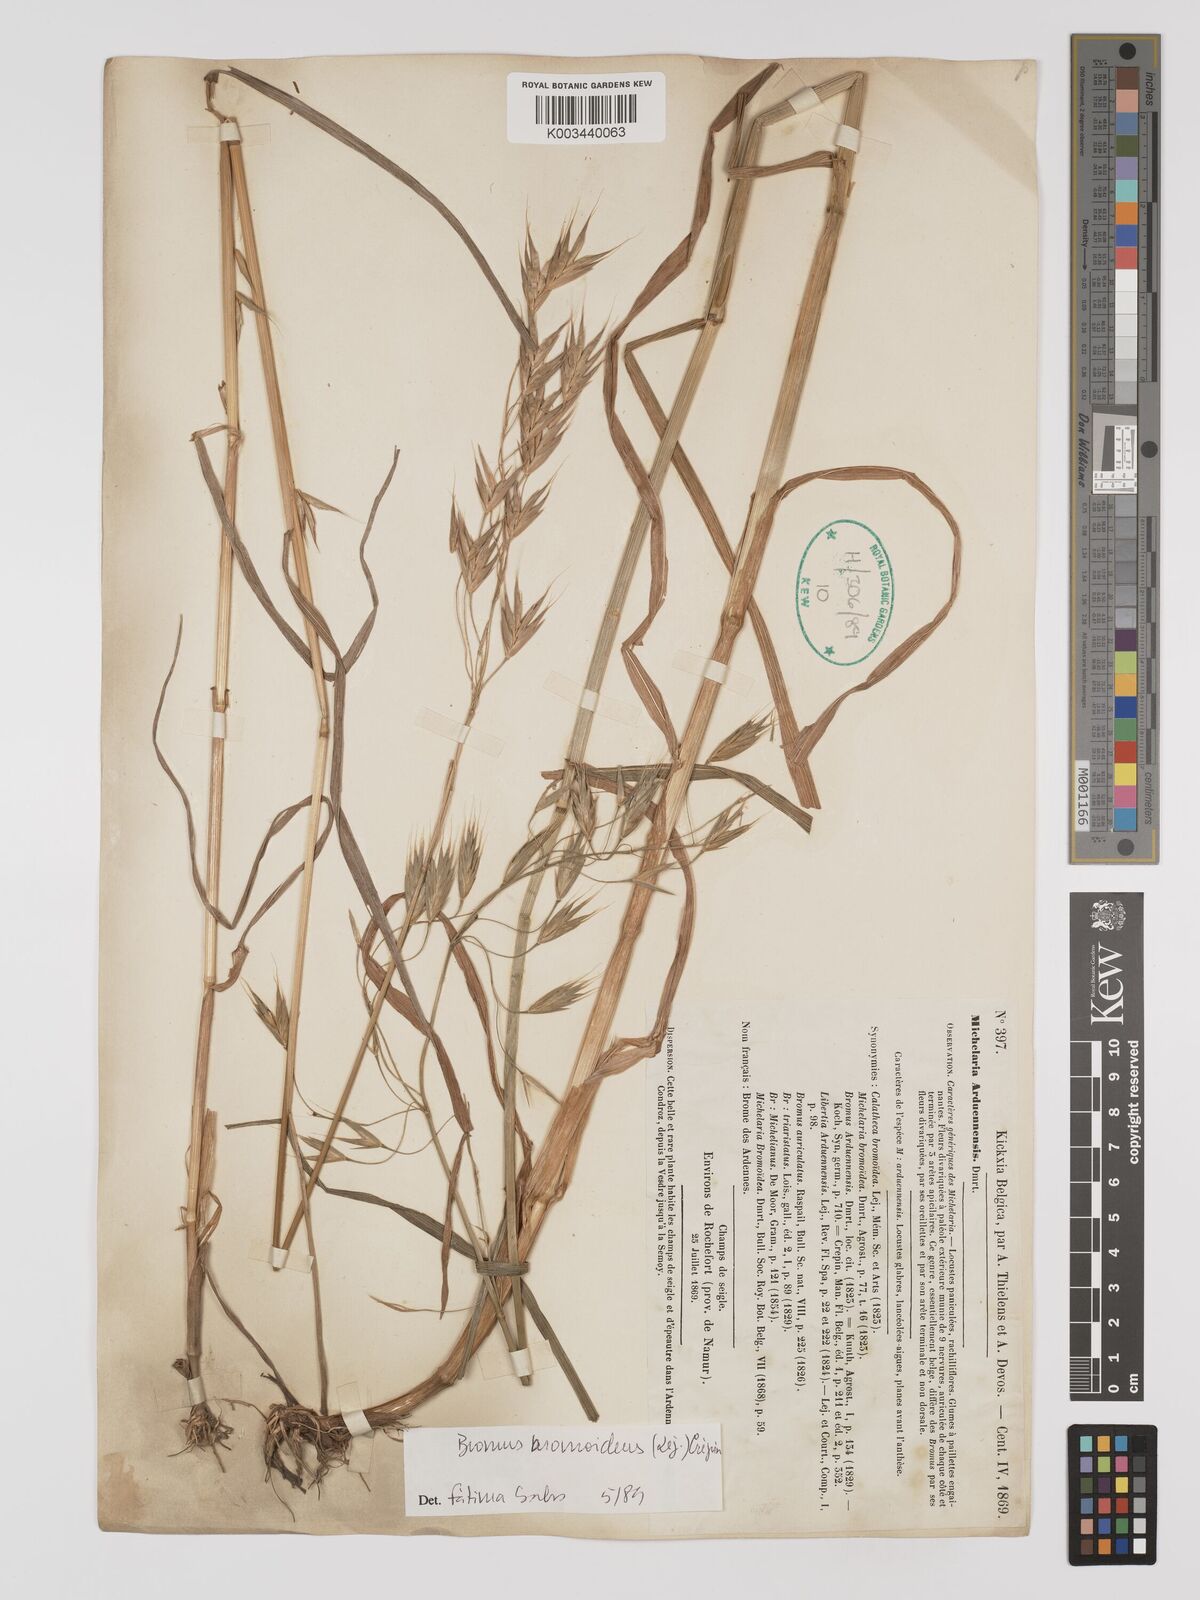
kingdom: Plantae
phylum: Tracheophyta
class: Liliopsida
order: Poales
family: Poaceae
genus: Bromus
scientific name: Bromus bromoideus
